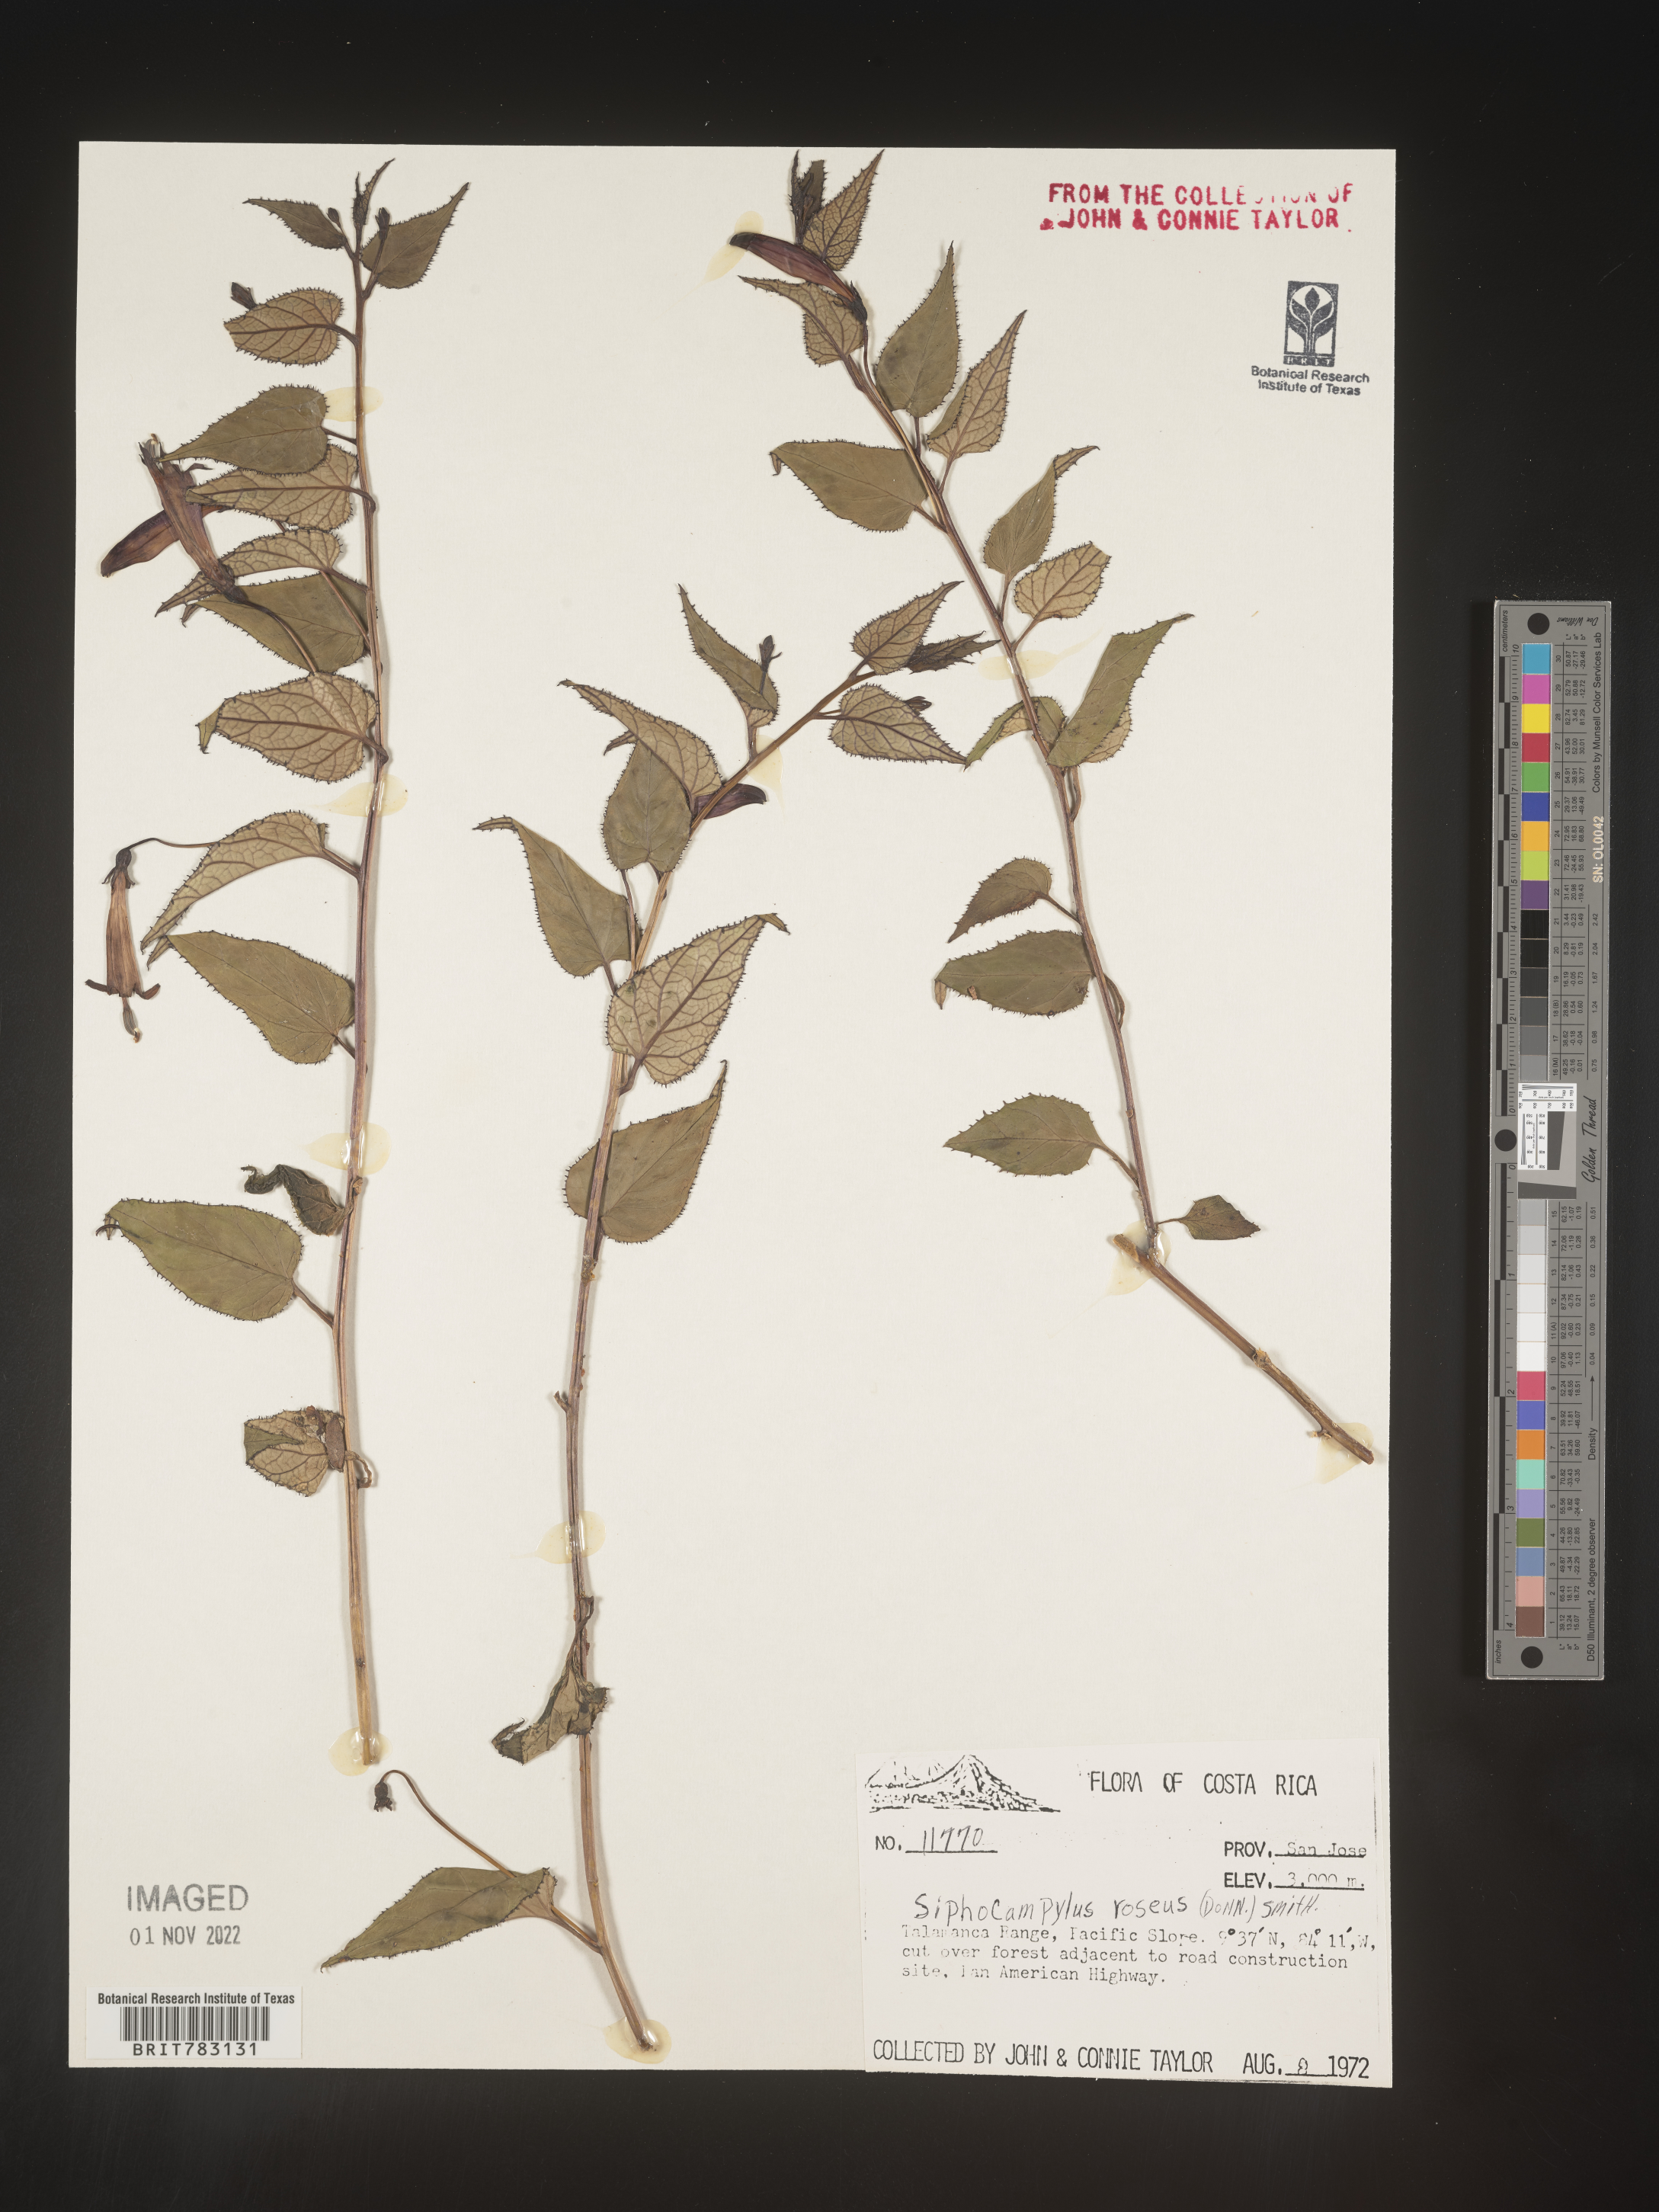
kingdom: Plantae
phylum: Tracheophyta
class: Magnoliopsida
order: Asterales
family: Campanulaceae
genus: Siphocampylus
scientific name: Siphocampylus
